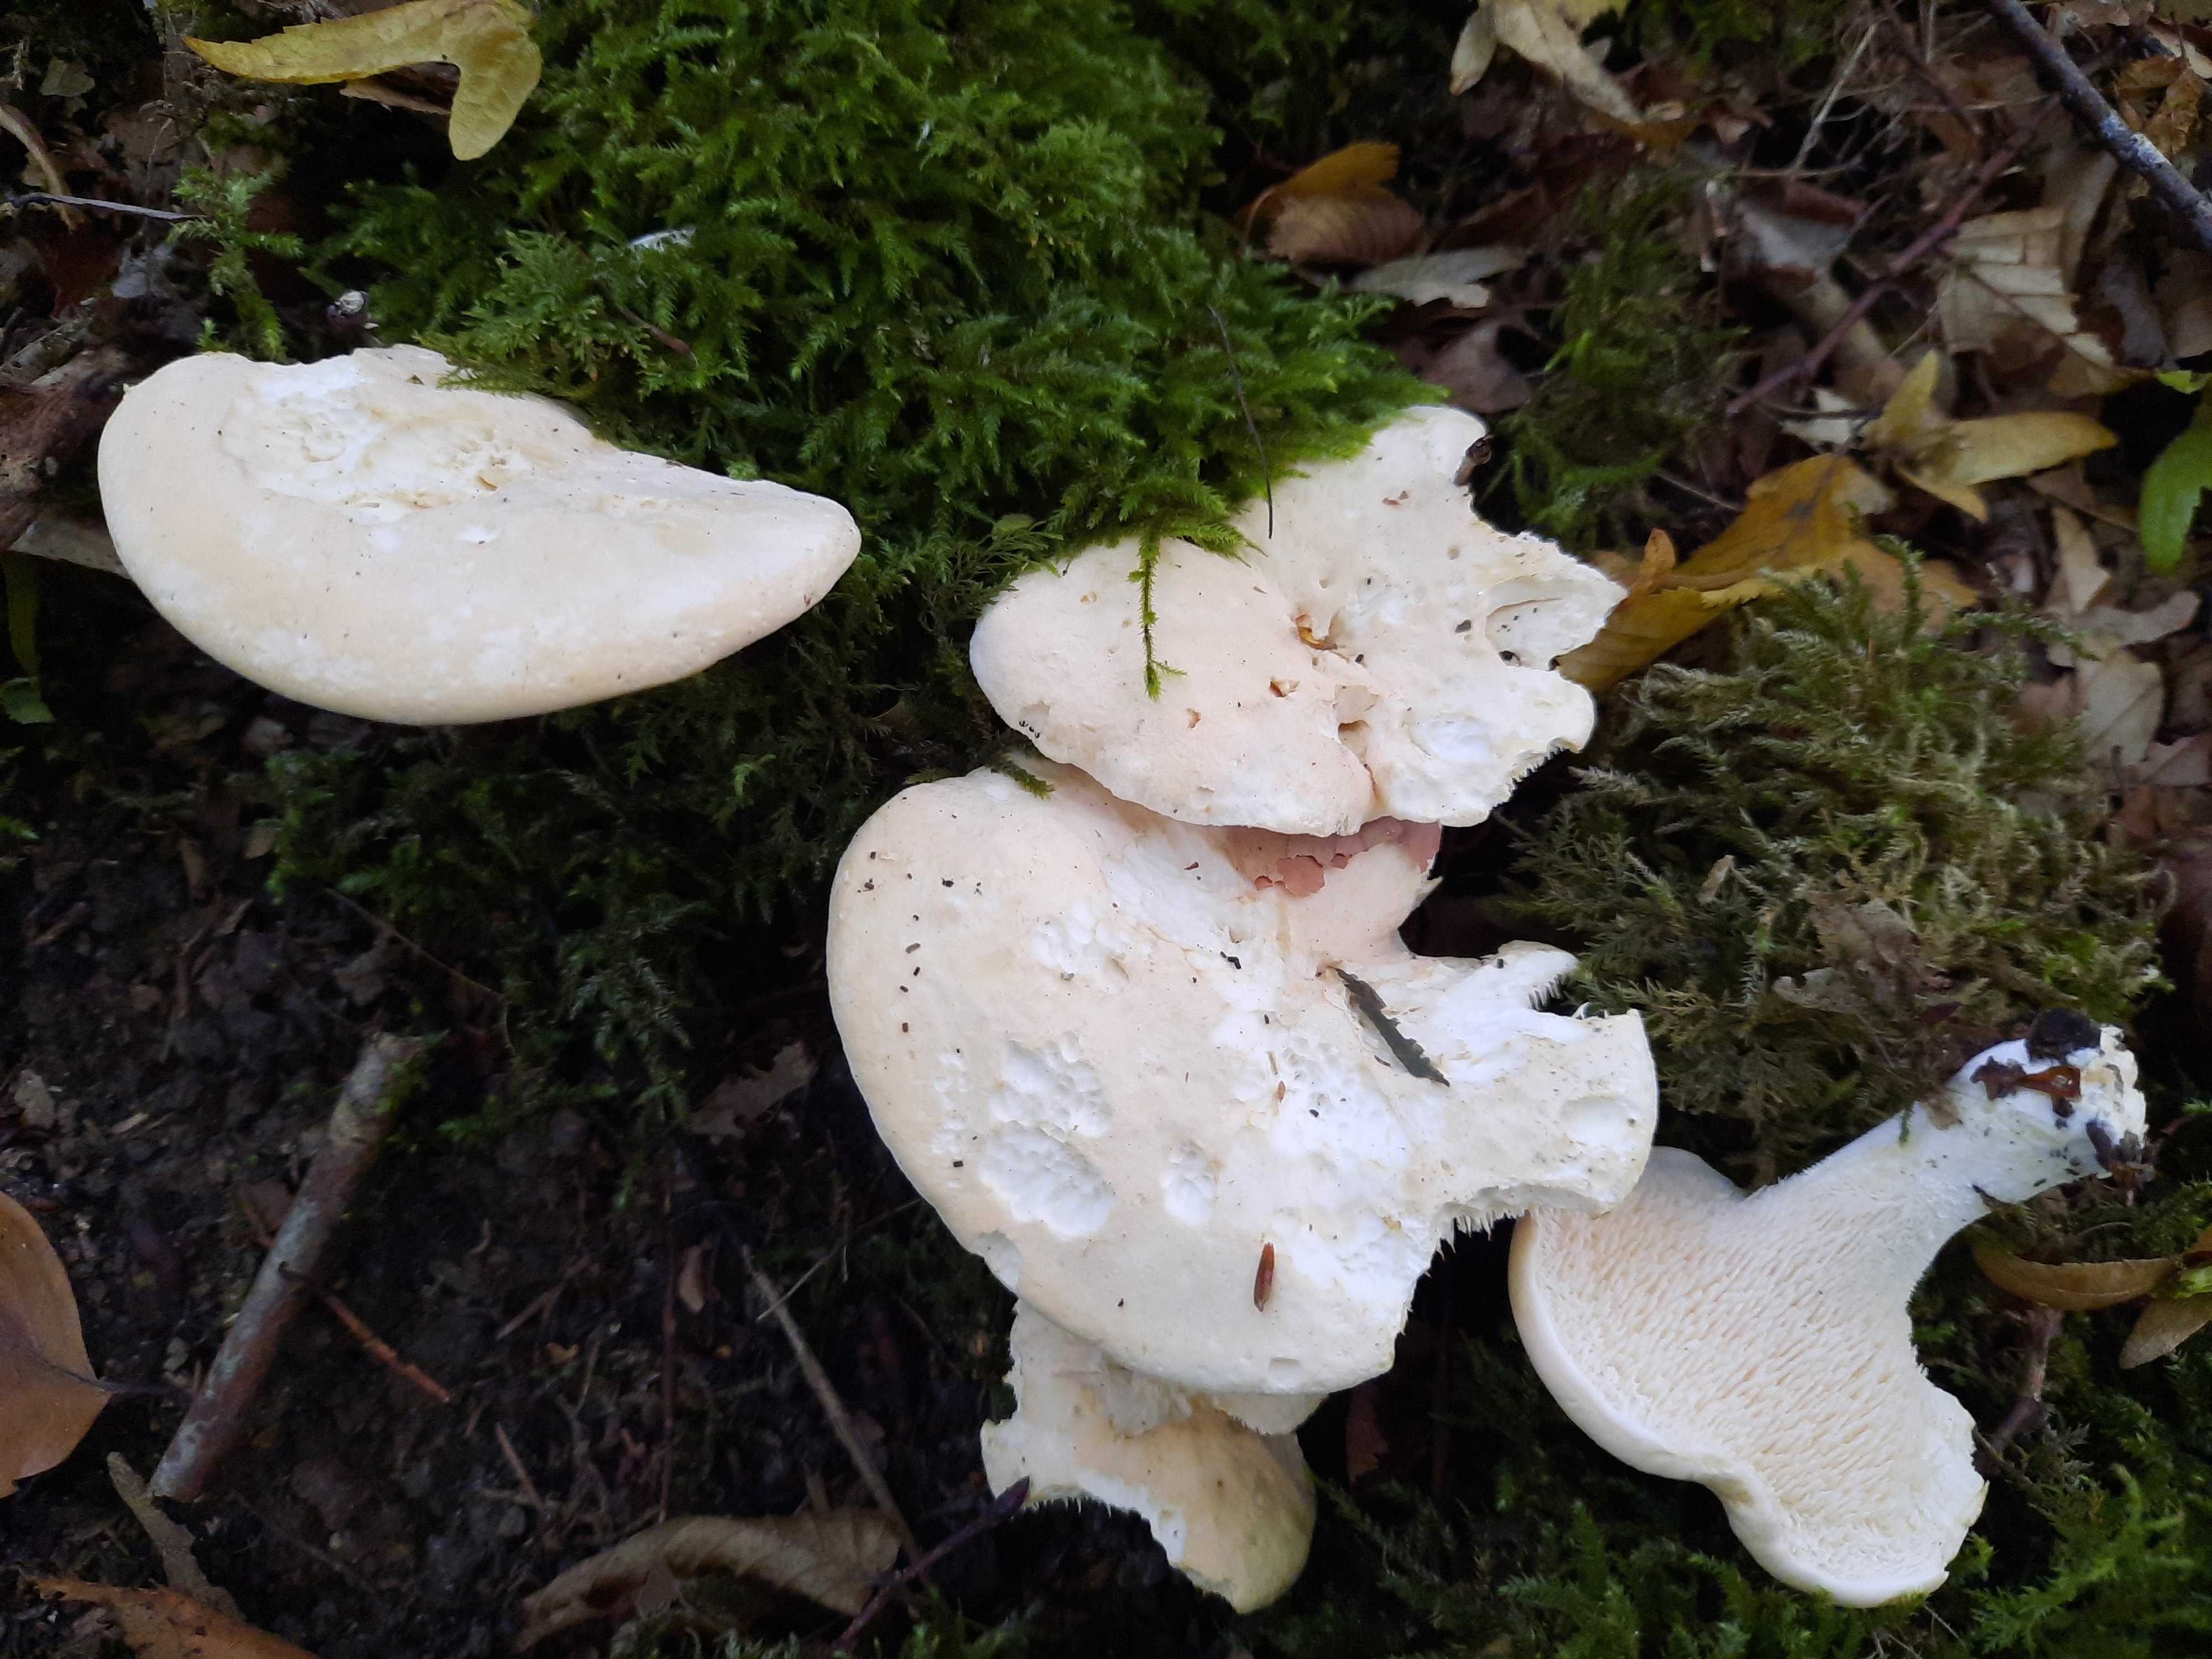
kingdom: Fungi
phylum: Basidiomycota
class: Agaricomycetes
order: Cantharellales
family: Hydnaceae
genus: Hydnum
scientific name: Hydnum repandum
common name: almindelig pigsvamp
